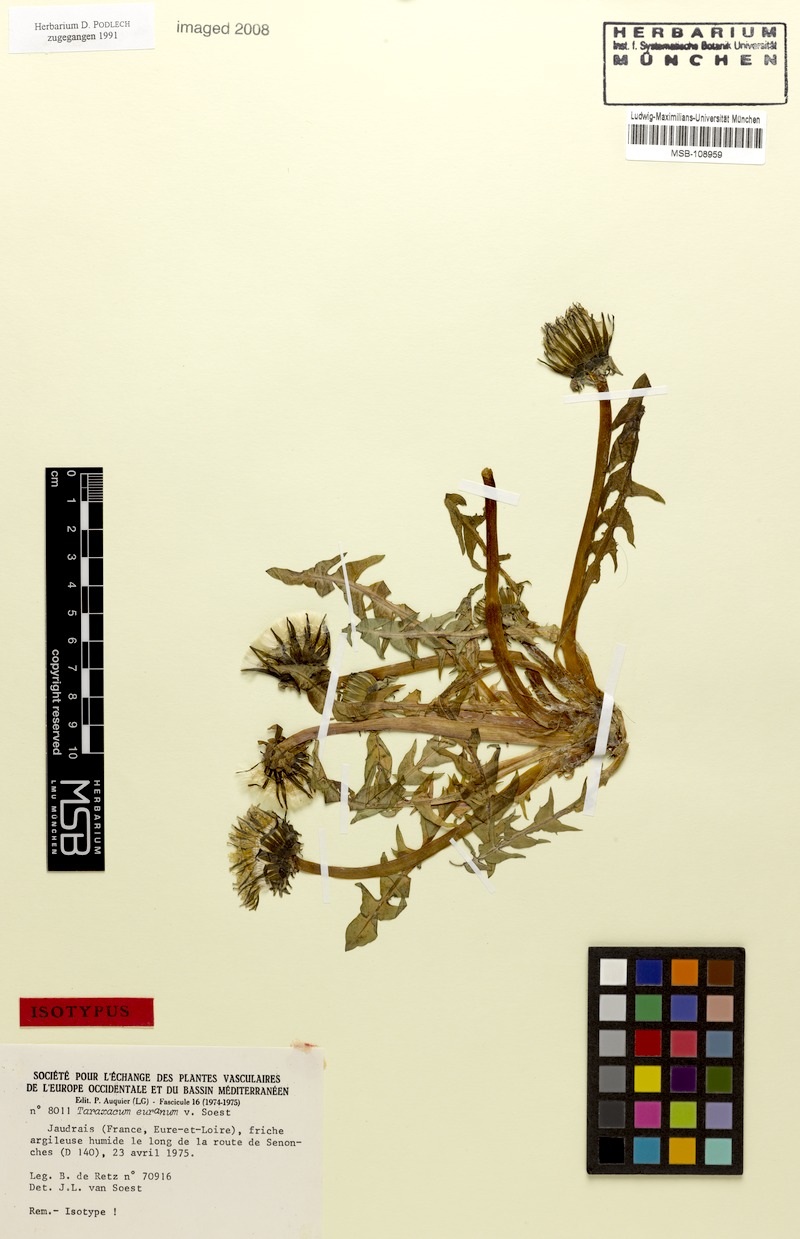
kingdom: Plantae
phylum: Tracheophyta
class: Magnoliopsida
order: Asterales
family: Asteraceae
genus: Taraxacum
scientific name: Taraxacum euranum
